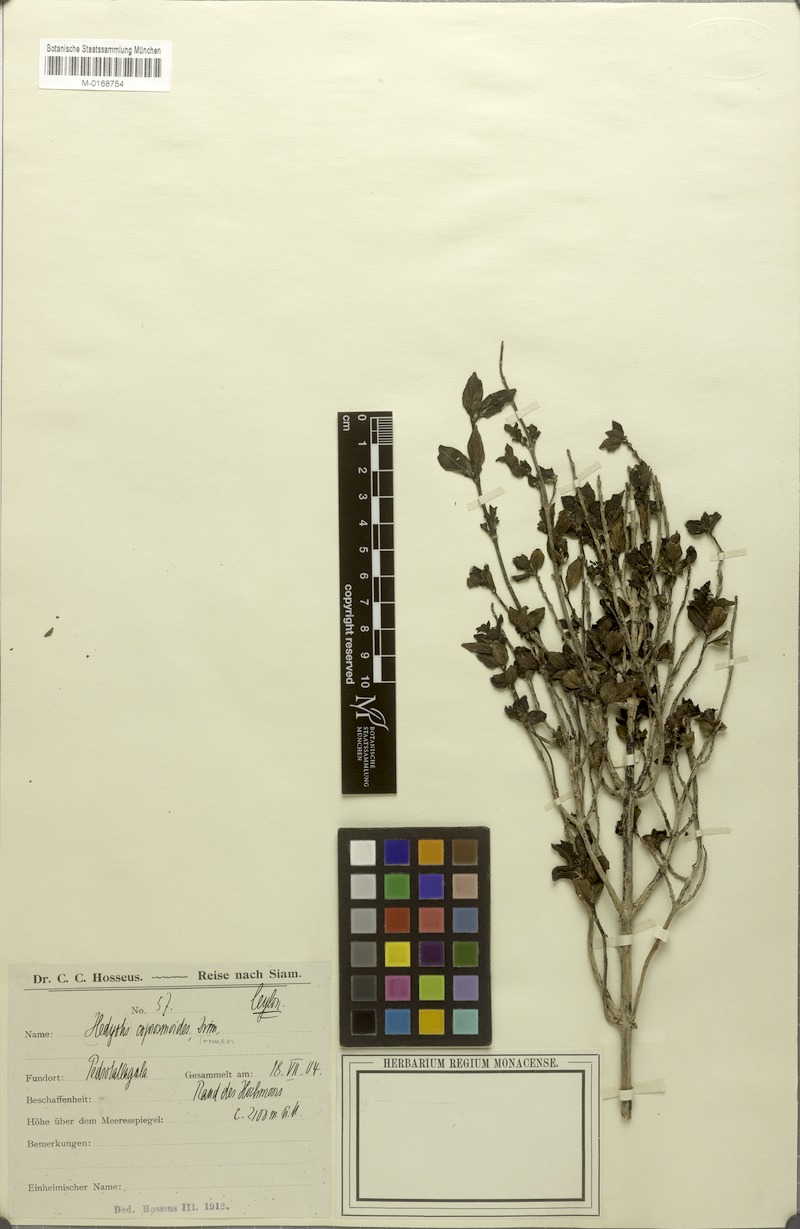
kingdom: Plantae
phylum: Tracheophyta
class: Magnoliopsida
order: Gentianales
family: Rubiaceae
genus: Hedyotis
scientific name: Hedyotis coprosmoides
